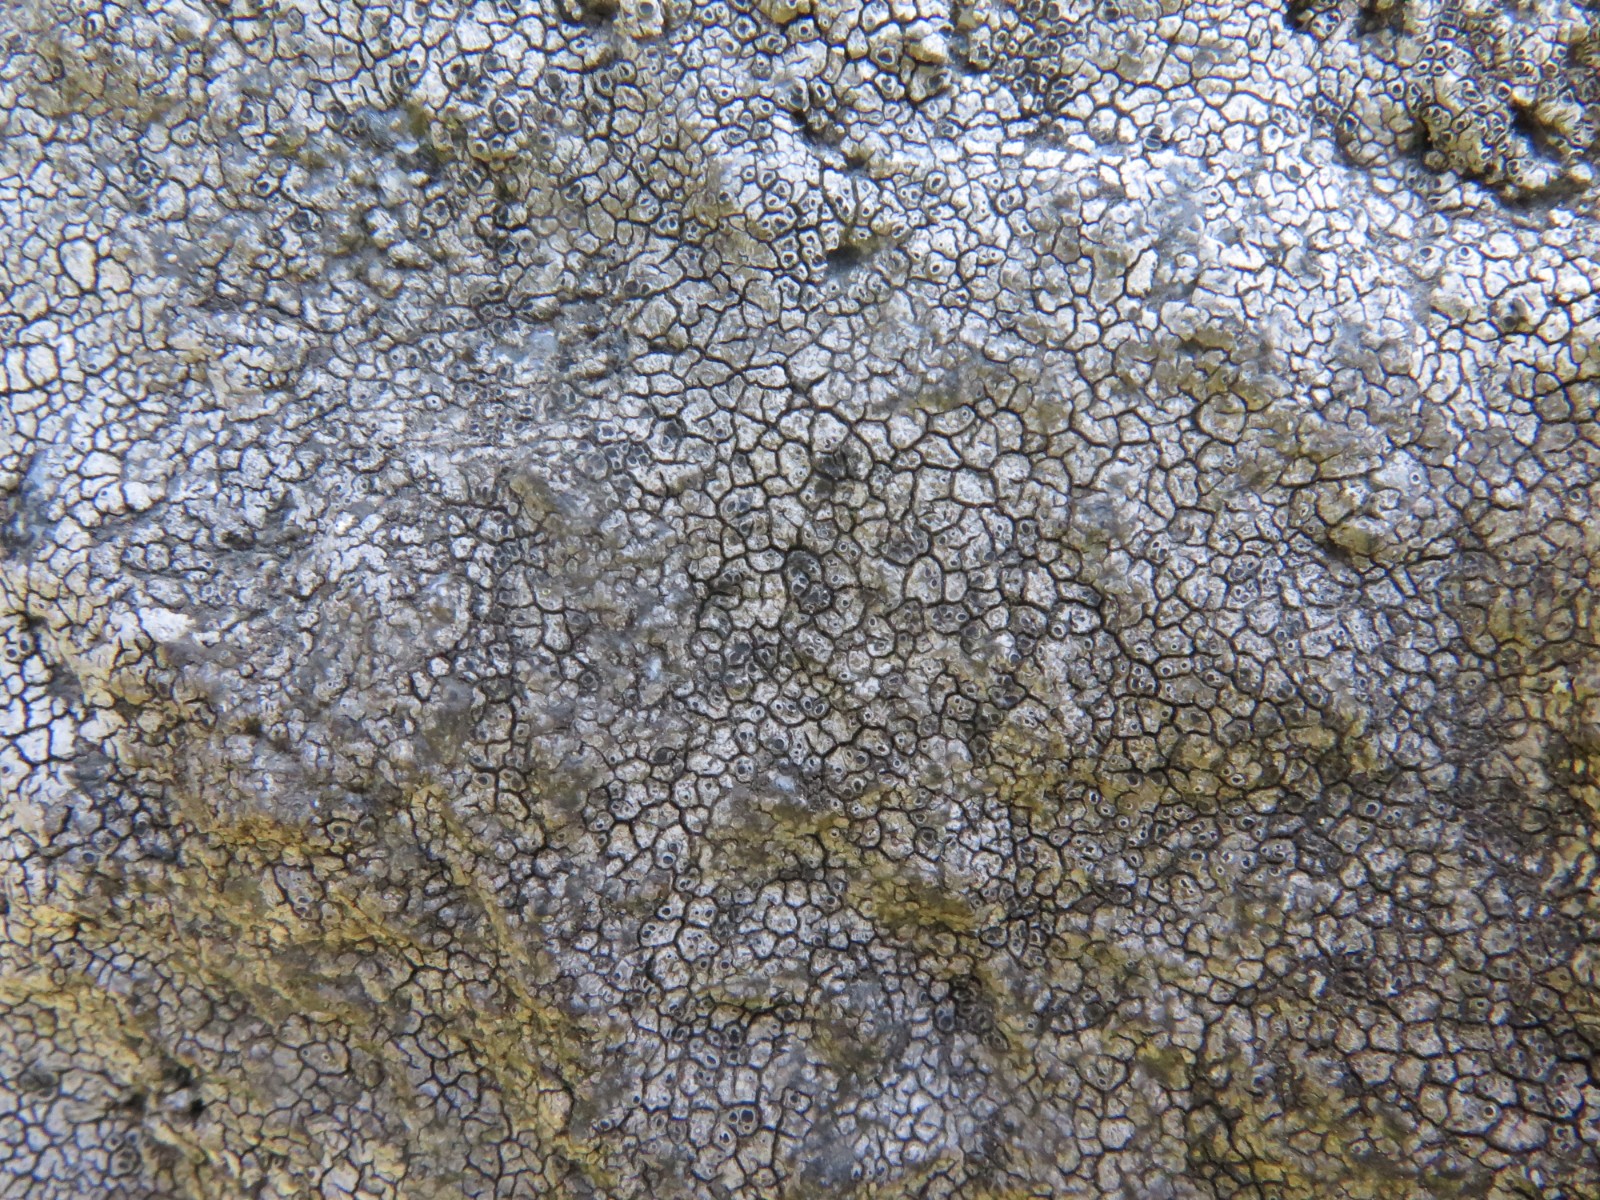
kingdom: Fungi
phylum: Ascomycota
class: Lecanoromycetes
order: Pertusariales
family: Megasporaceae
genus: Circinaria
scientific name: Circinaria caesiocinerea
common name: fuglestens-hulskivelav
